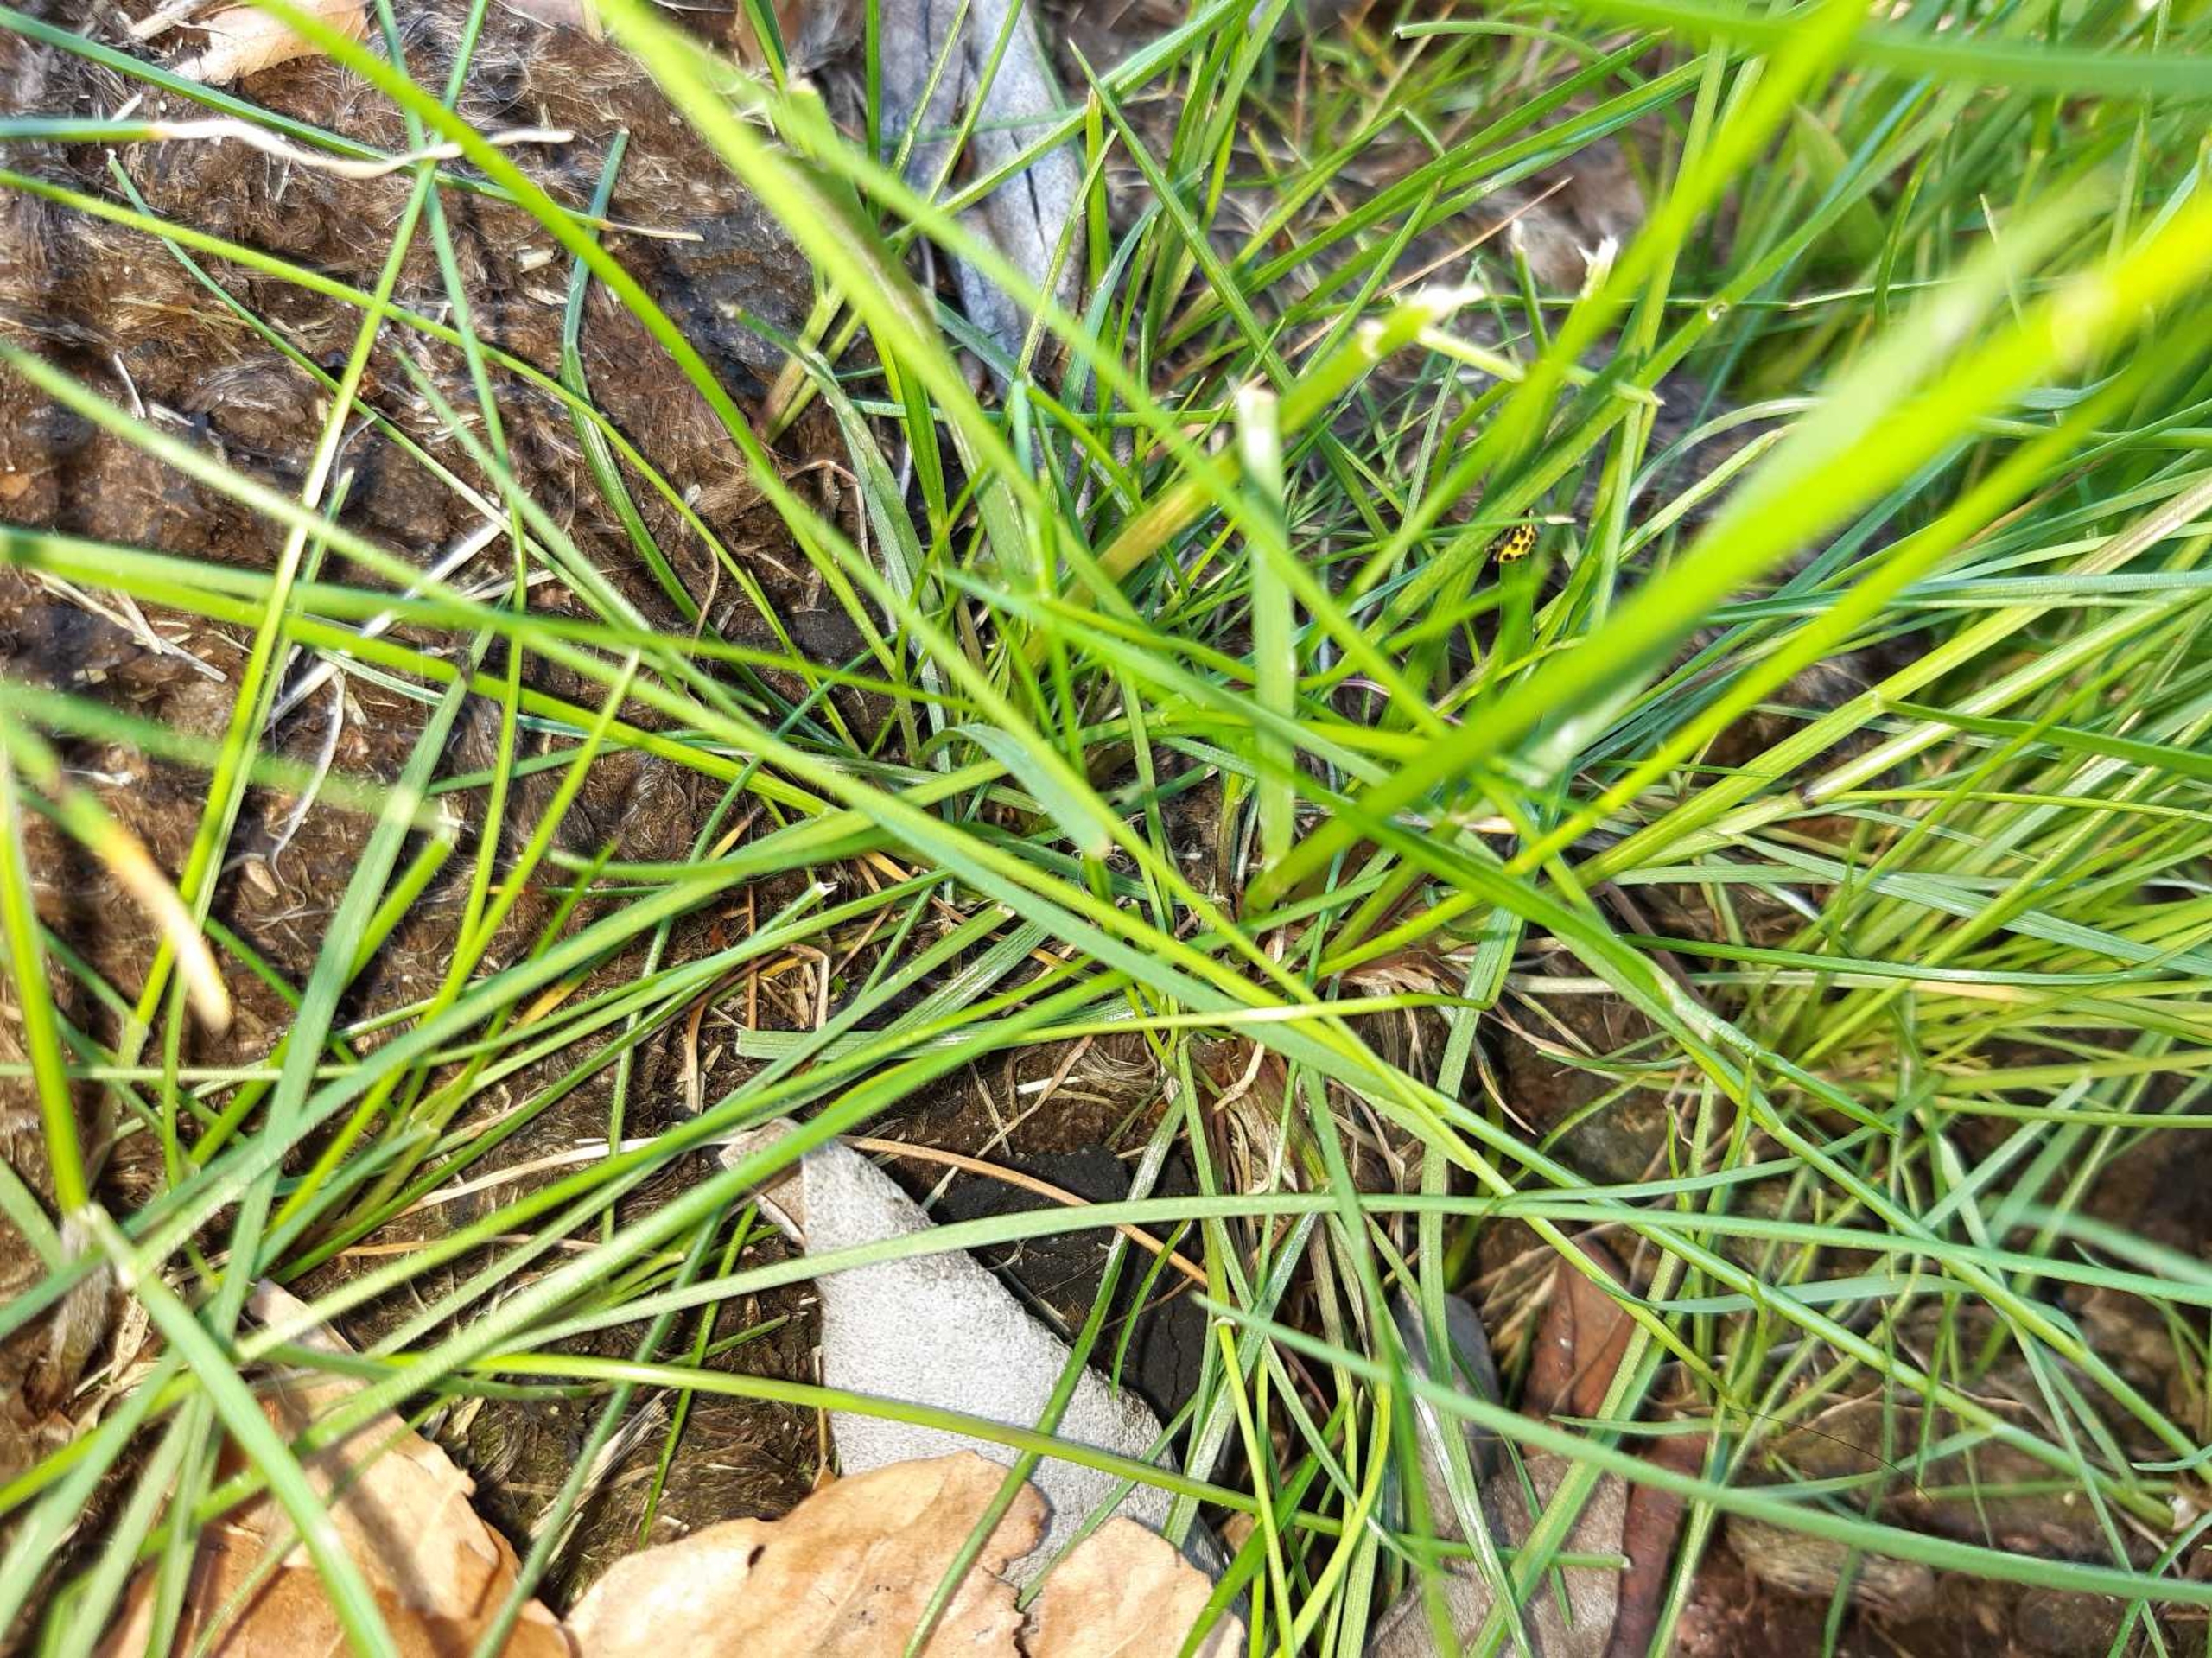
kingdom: Animalia
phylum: Arthropoda
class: Insecta
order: Coleoptera
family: Coccinellidae
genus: Psyllobora
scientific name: Psyllobora vigintiduopunctata
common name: Toogtyveplettet mariehøne
